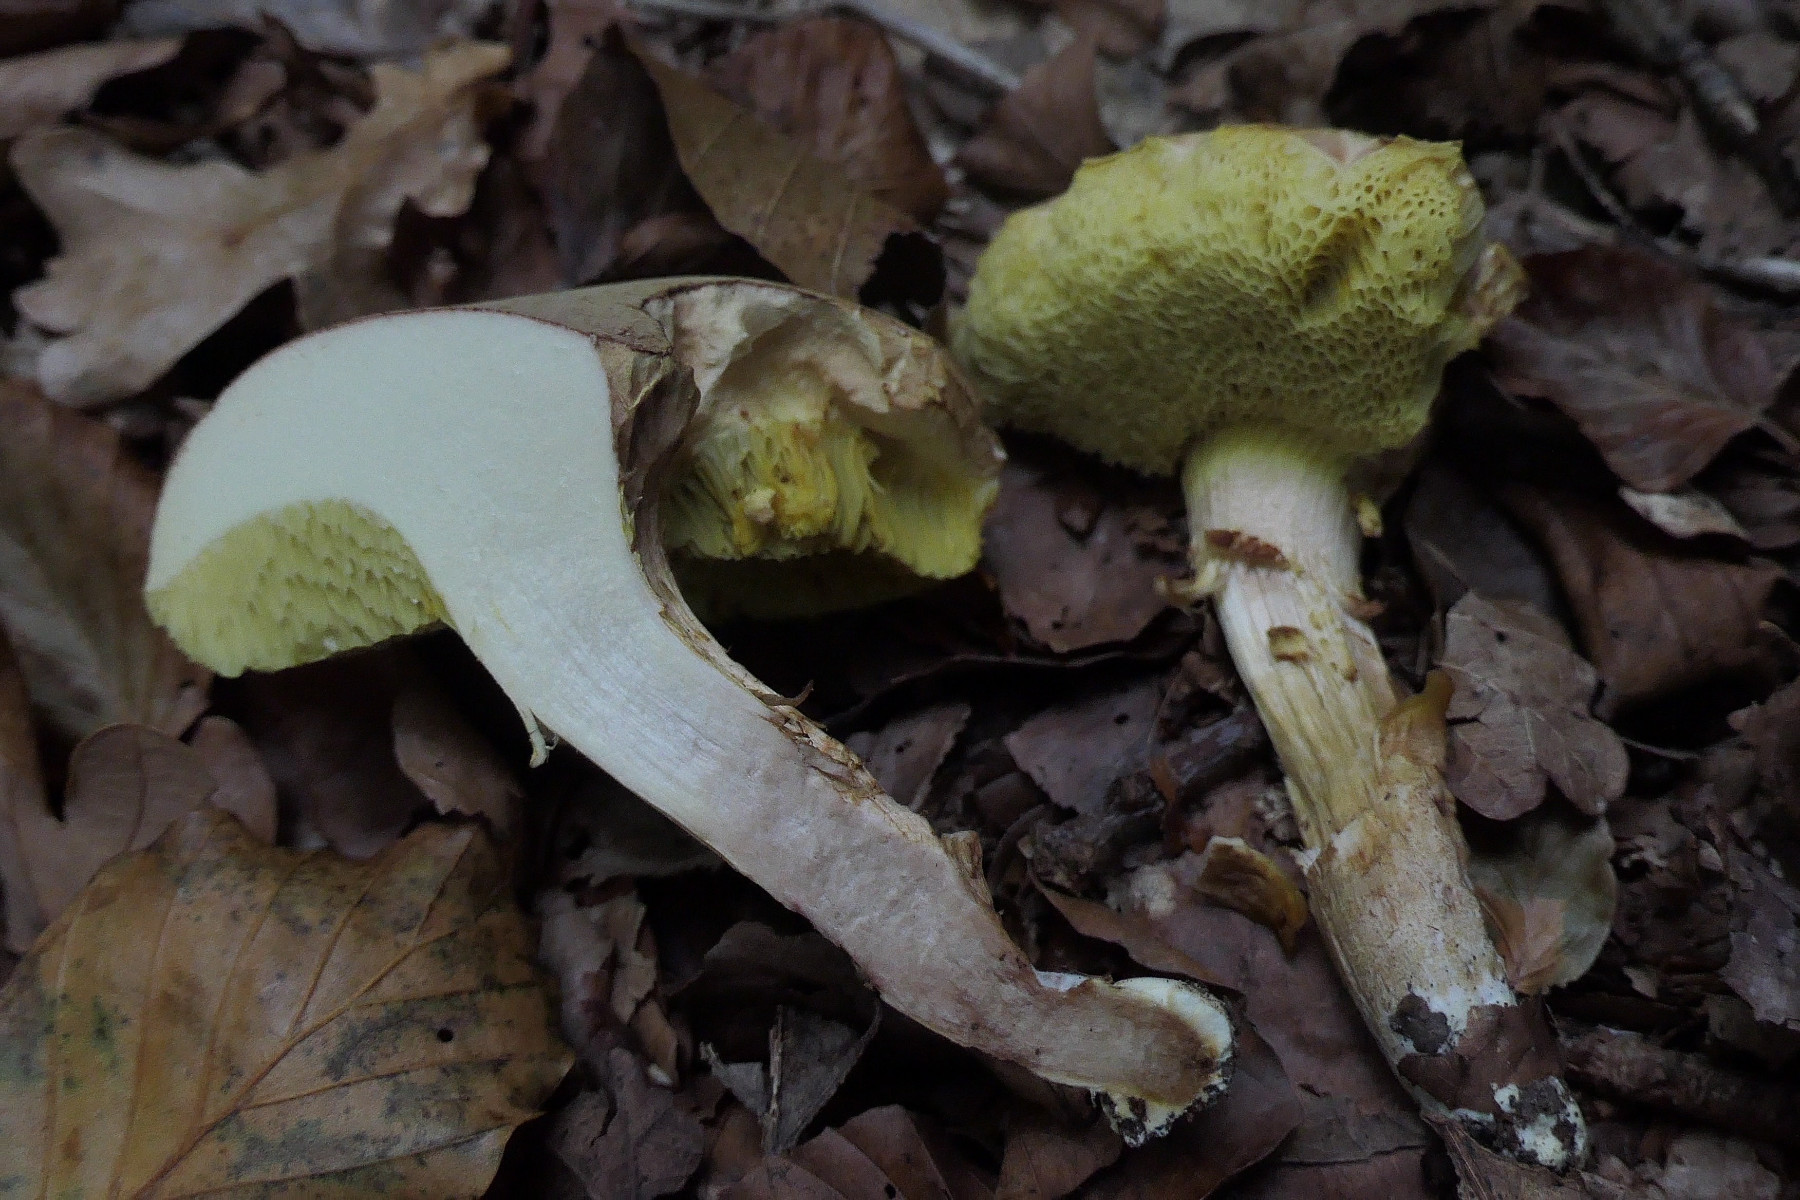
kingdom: Fungi
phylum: Basidiomycota
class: Agaricomycetes
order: Boletales
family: Boletaceae
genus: Xerocomus
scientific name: Xerocomus subtomentosus
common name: filtet rørhat
